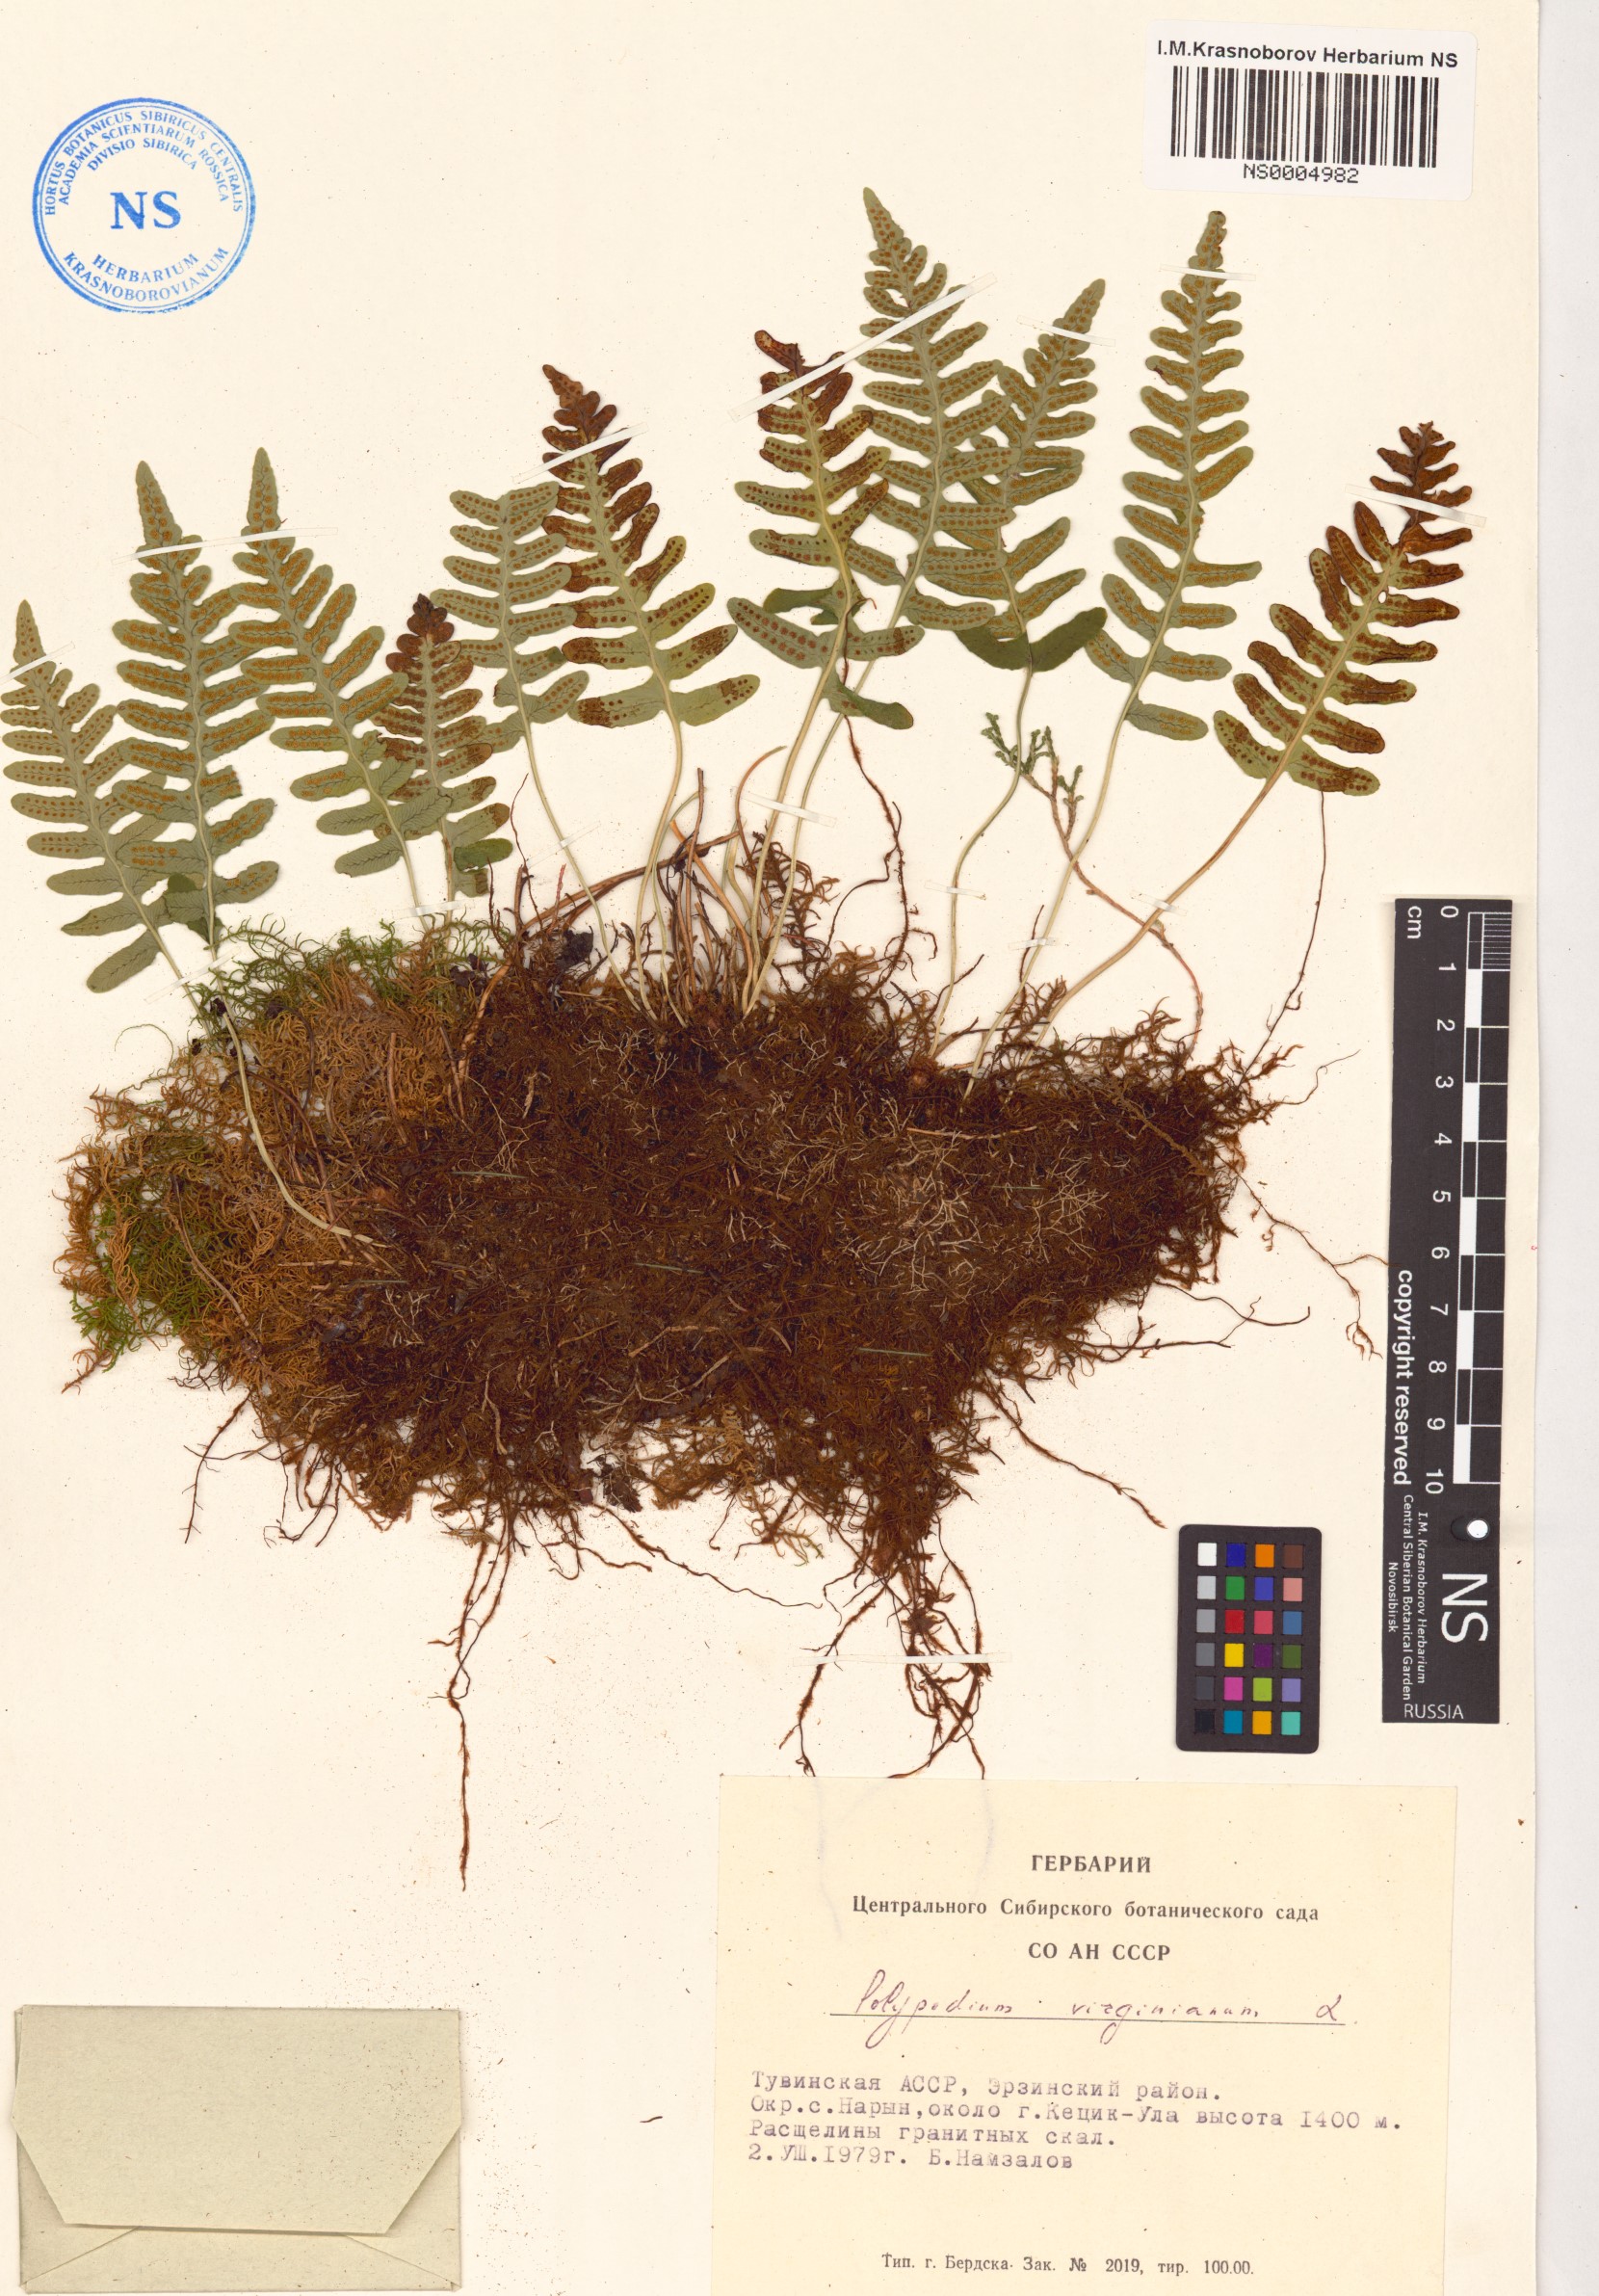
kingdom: Plantae
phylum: Tracheophyta
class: Polypodiopsida
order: Polypodiales
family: Polypodiaceae
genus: Polypodium
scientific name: Polypodium virginianum
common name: American wall fern
